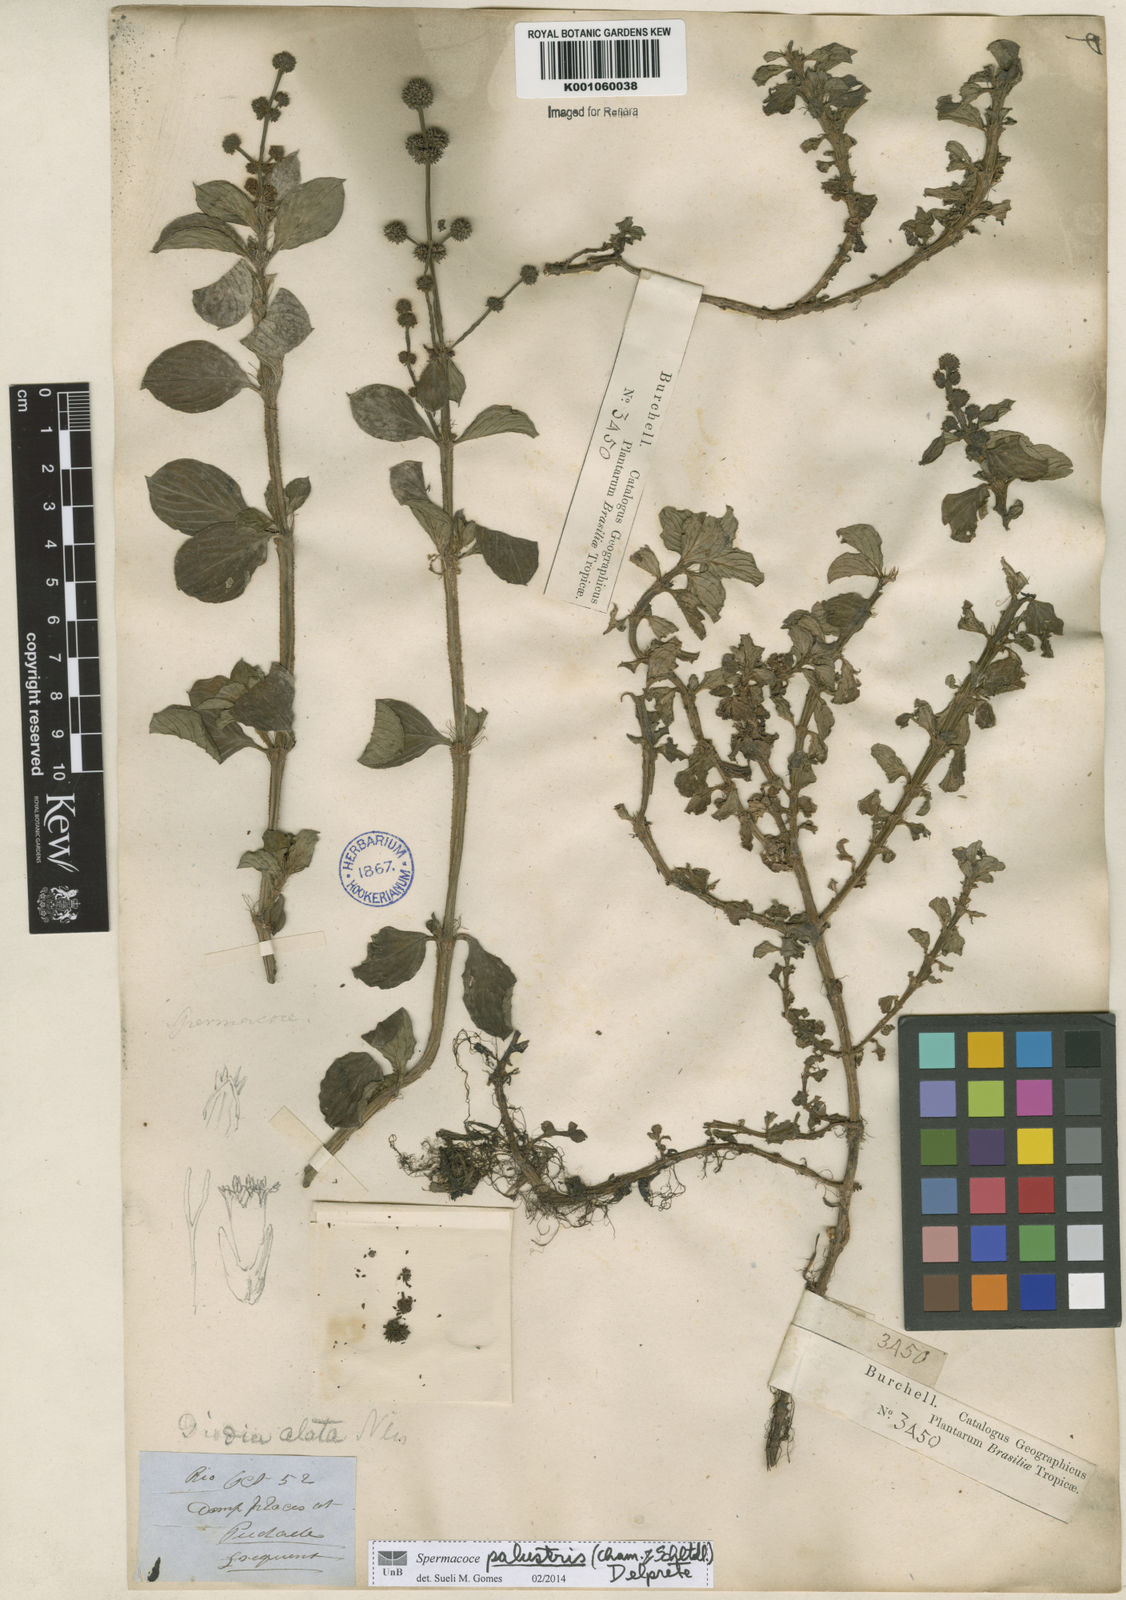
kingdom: Plantae
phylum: Tracheophyta
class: Magnoliopsida
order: Gentianales
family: Rubiaceae
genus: Galianthe
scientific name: Galianthe palustris
